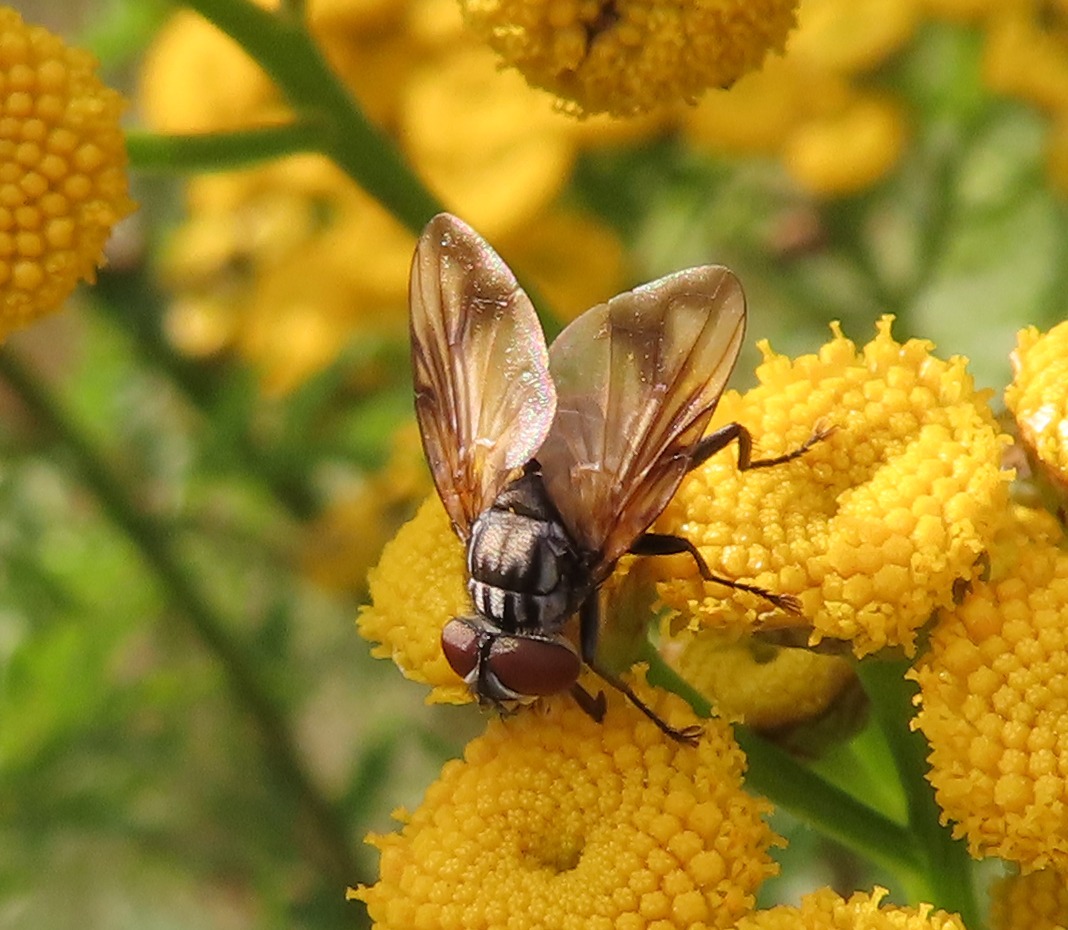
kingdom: Animalia
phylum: Arthropoda
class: Insecta
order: Diptera
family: Tachinidae
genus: Phasia
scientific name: Phasia obesa
